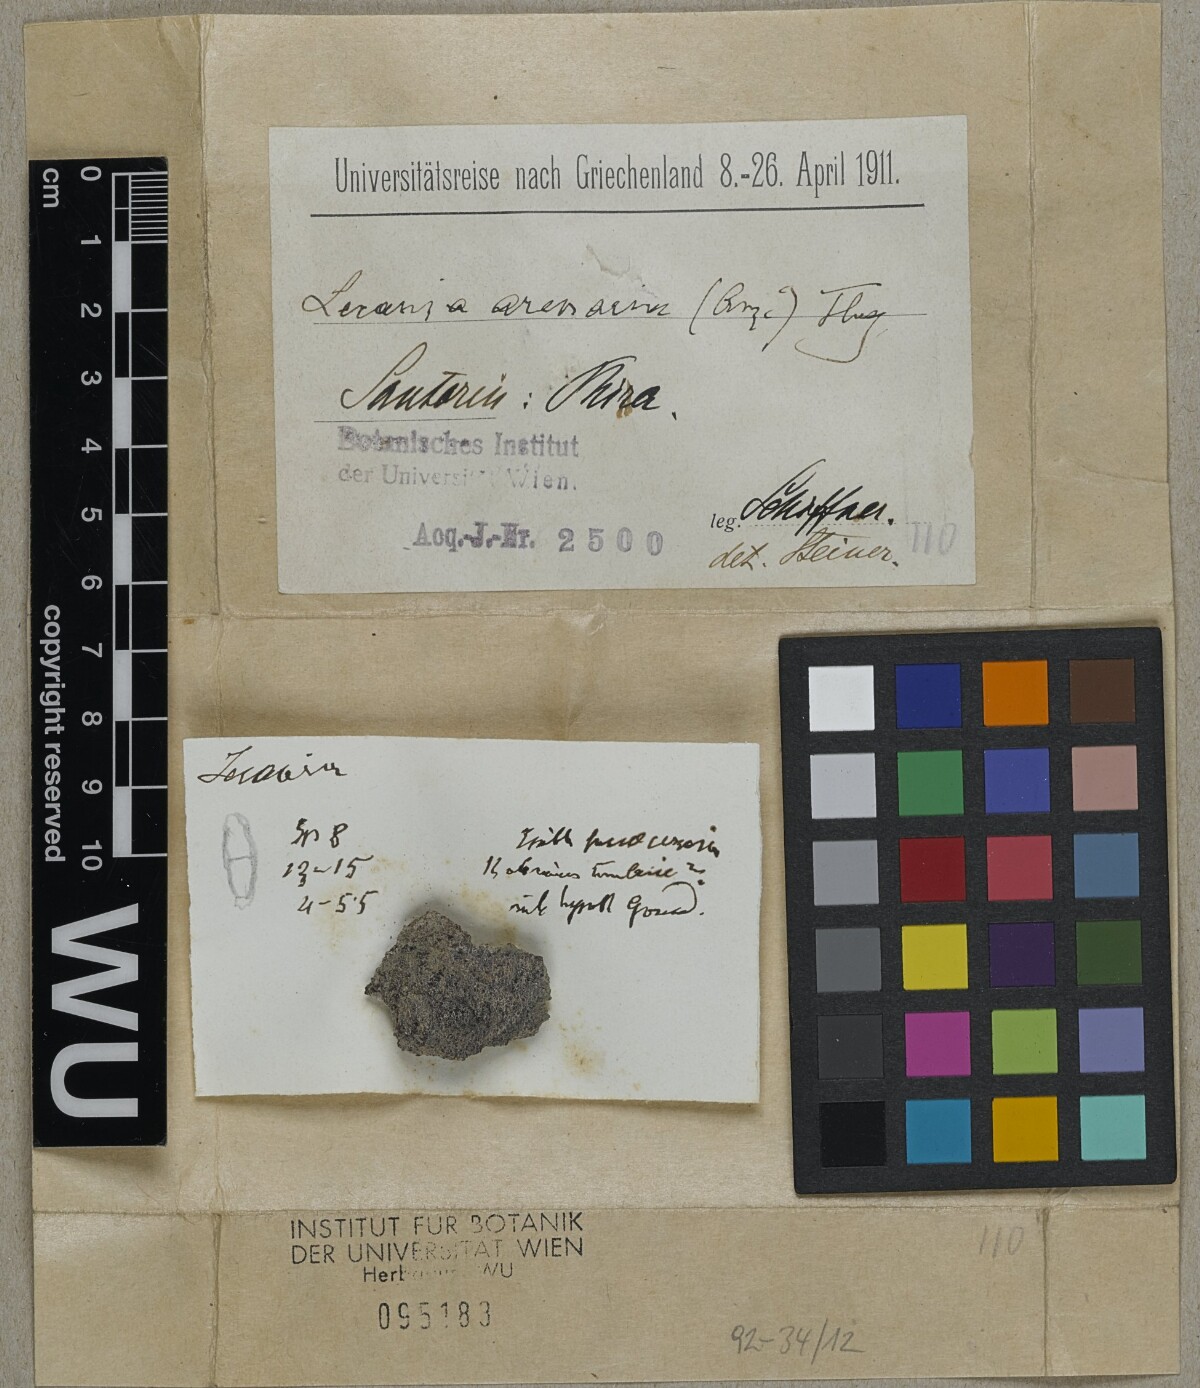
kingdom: Fungi
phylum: Ascomycota
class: Lecanoromycetes
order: Lecanorales
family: Ramalinaceae
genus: Lecania
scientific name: Lecania arenaria
